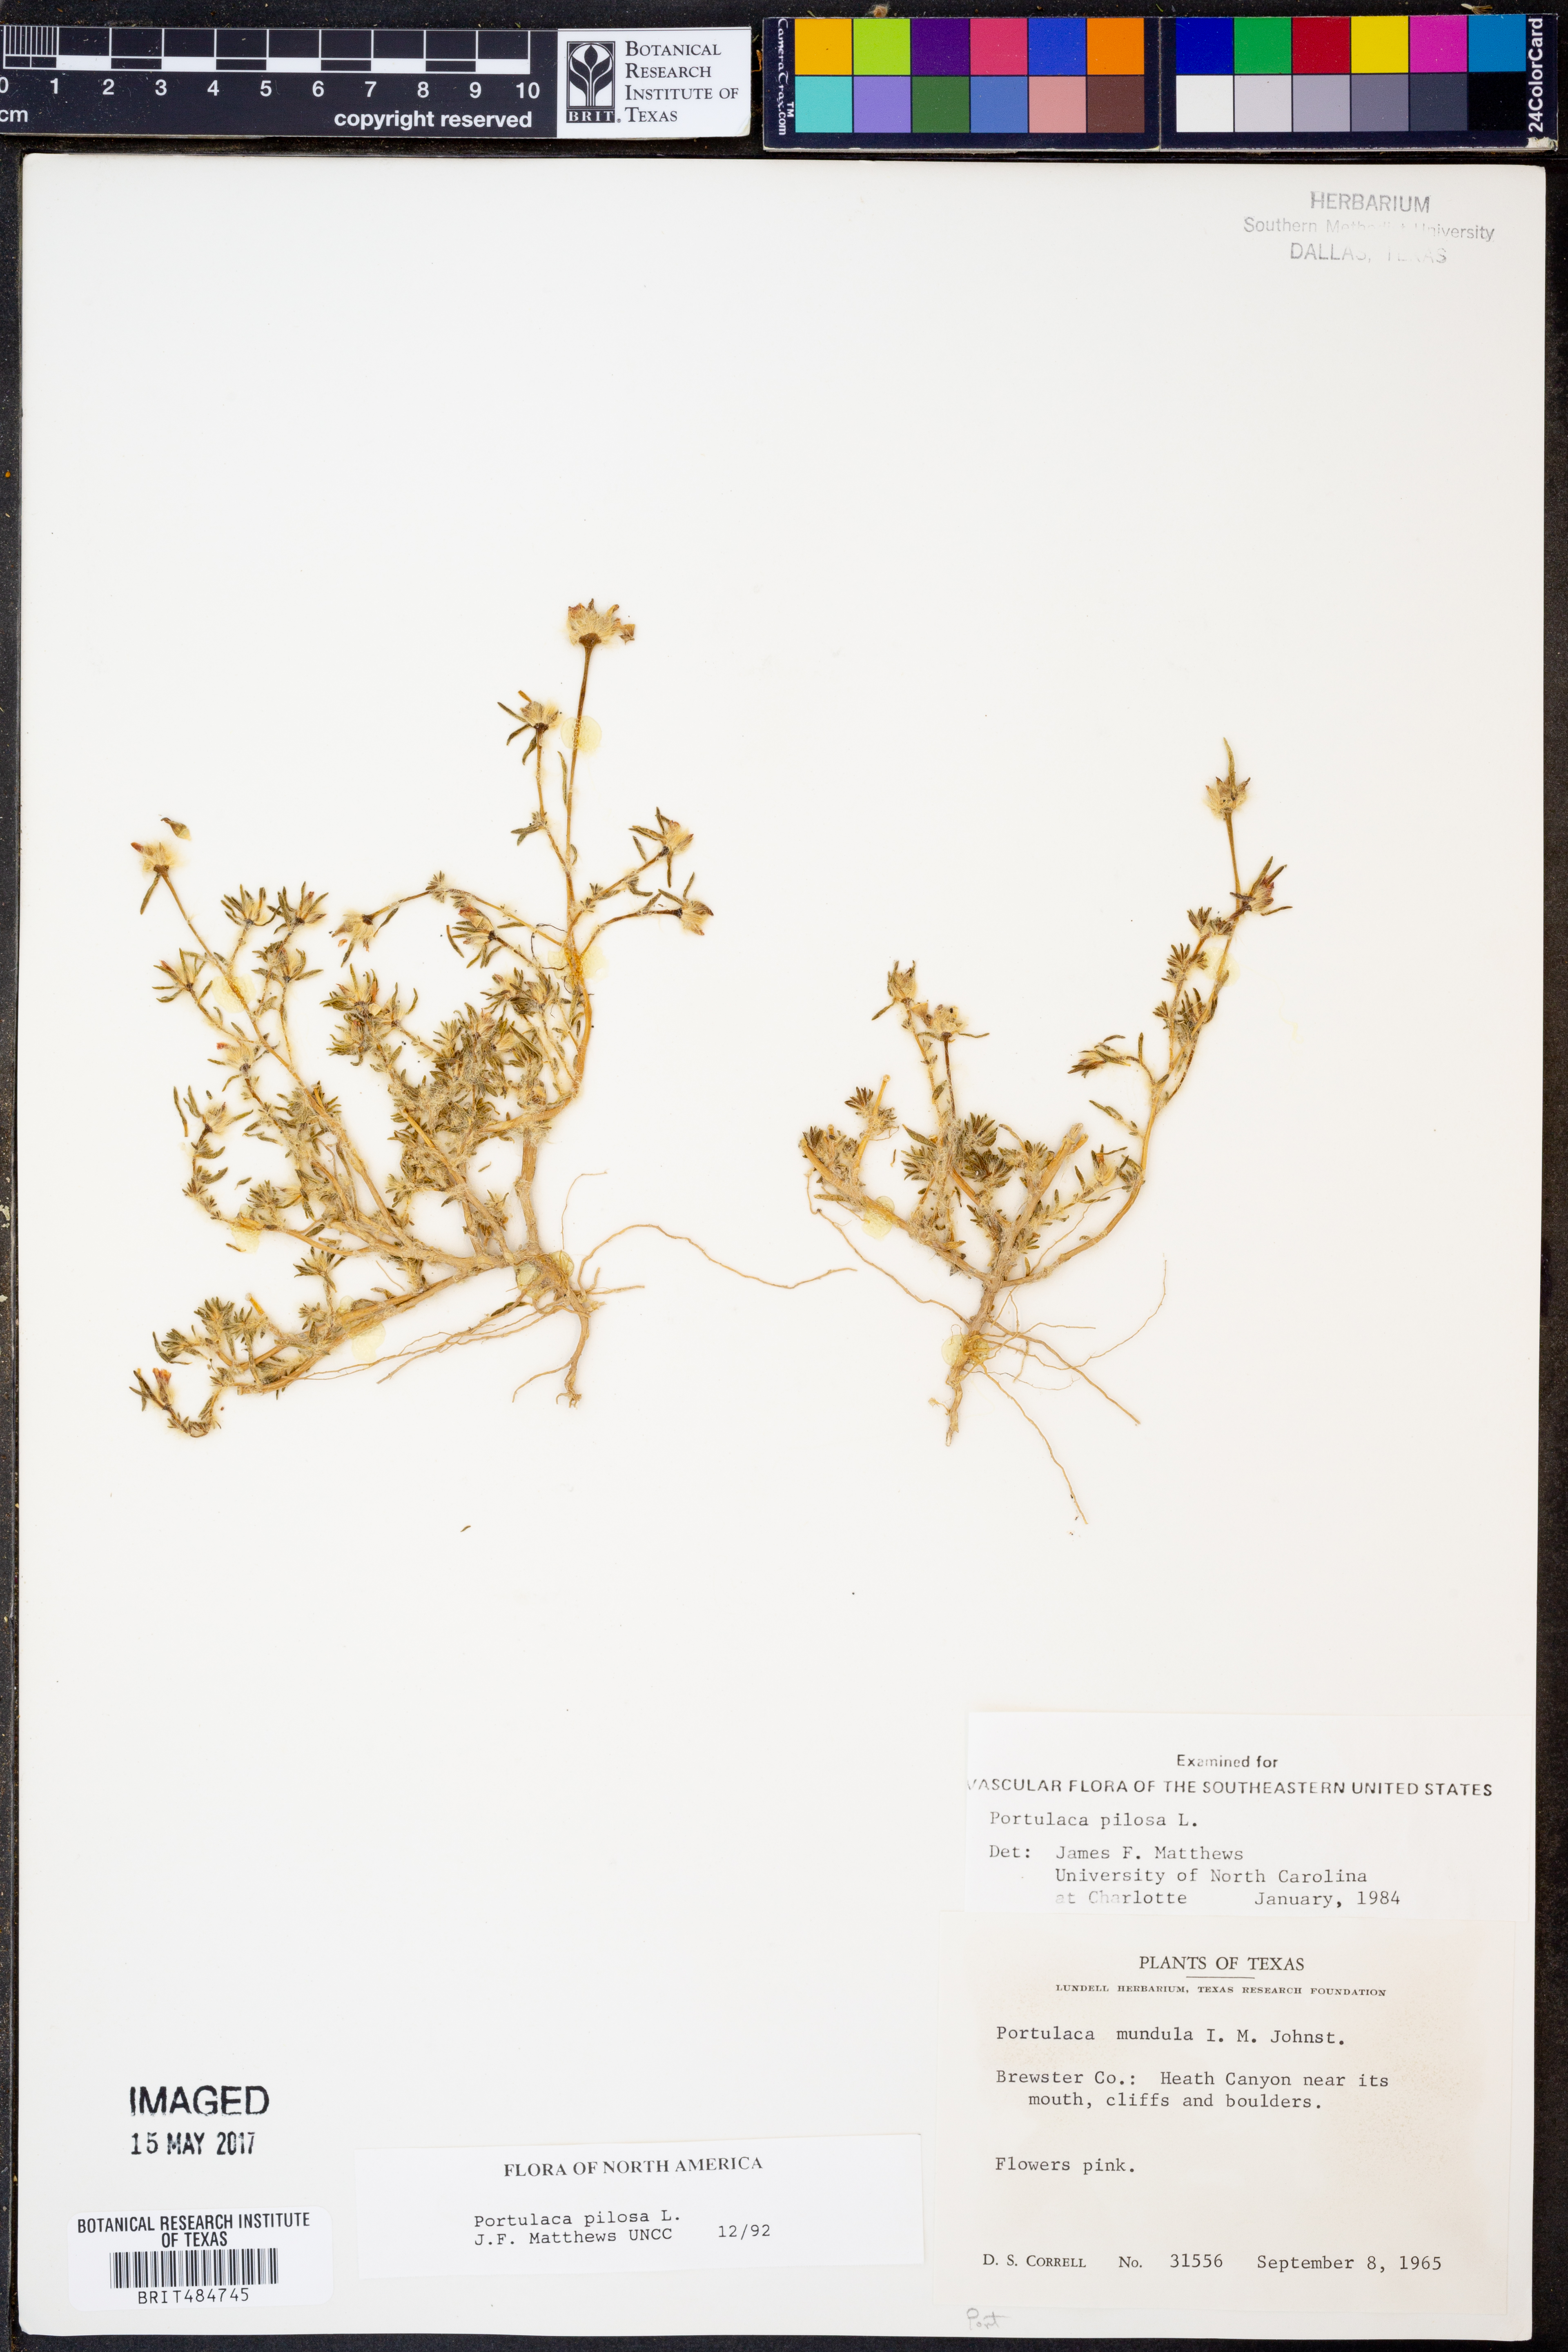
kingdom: Plantae
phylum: Tracheophyta
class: Magnoliopsida
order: Caryophyllales
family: Portulacaceae
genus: Portulaca
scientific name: Portulaca pilosa
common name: Kiss me quick
